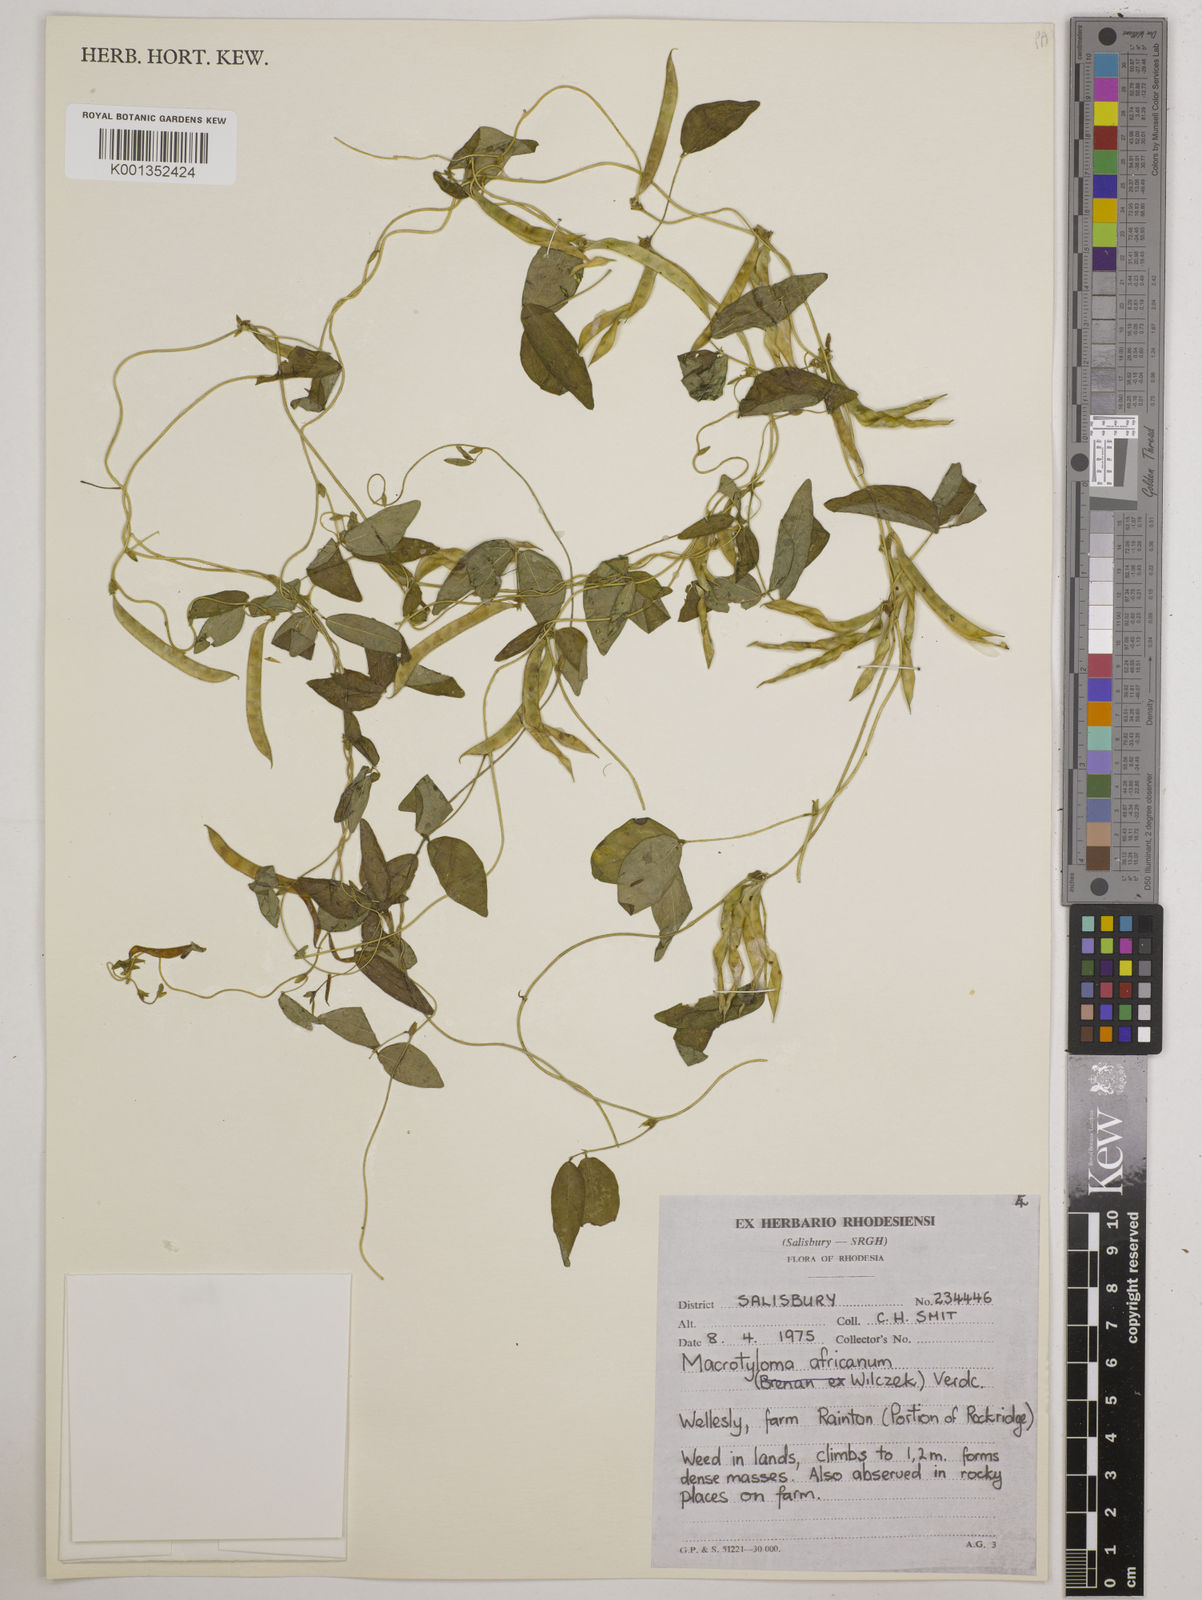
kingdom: Plantae
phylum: Tracheophyta
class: Magnoliopsida
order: Fabales
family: Fabaceae
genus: Macrotyloma
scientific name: Macrotyloma africanum
